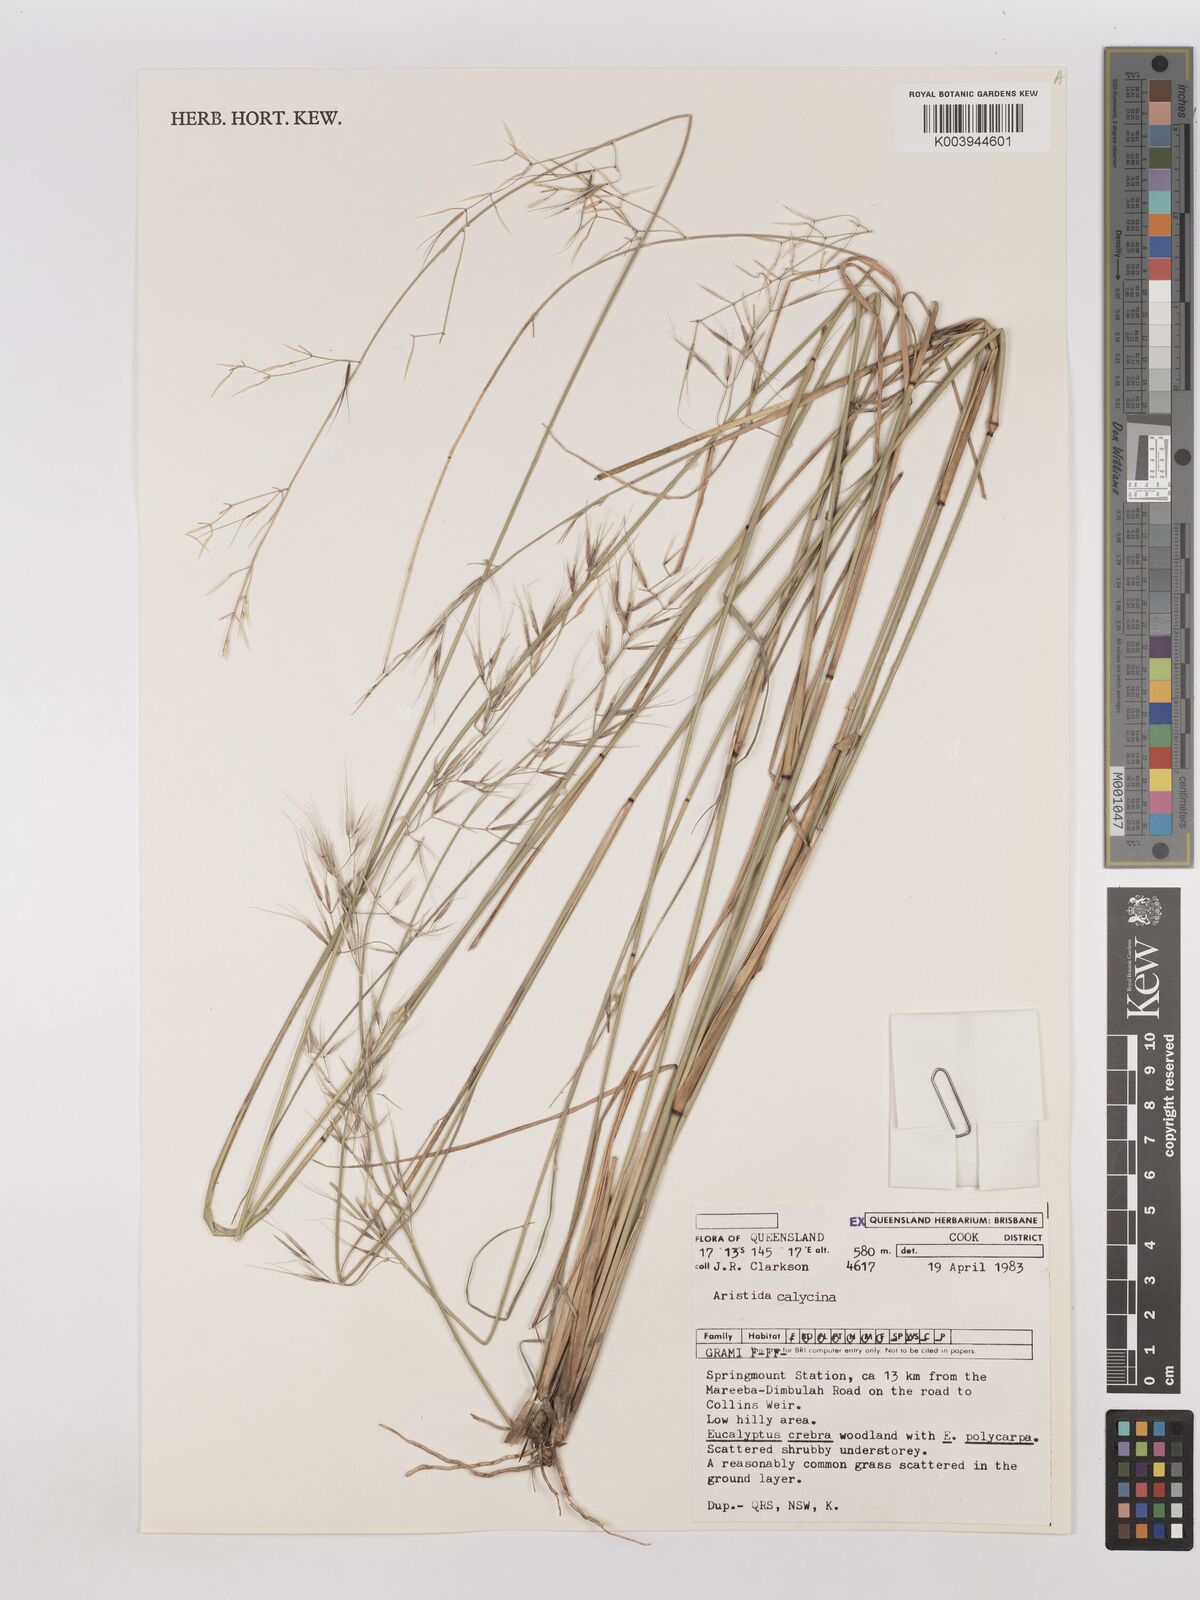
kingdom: Plantae
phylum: Tracheophyta
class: Liliopsida
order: Poales
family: Poaceae
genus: Aristida
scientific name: Aristida calycina
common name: Dark wire grass
